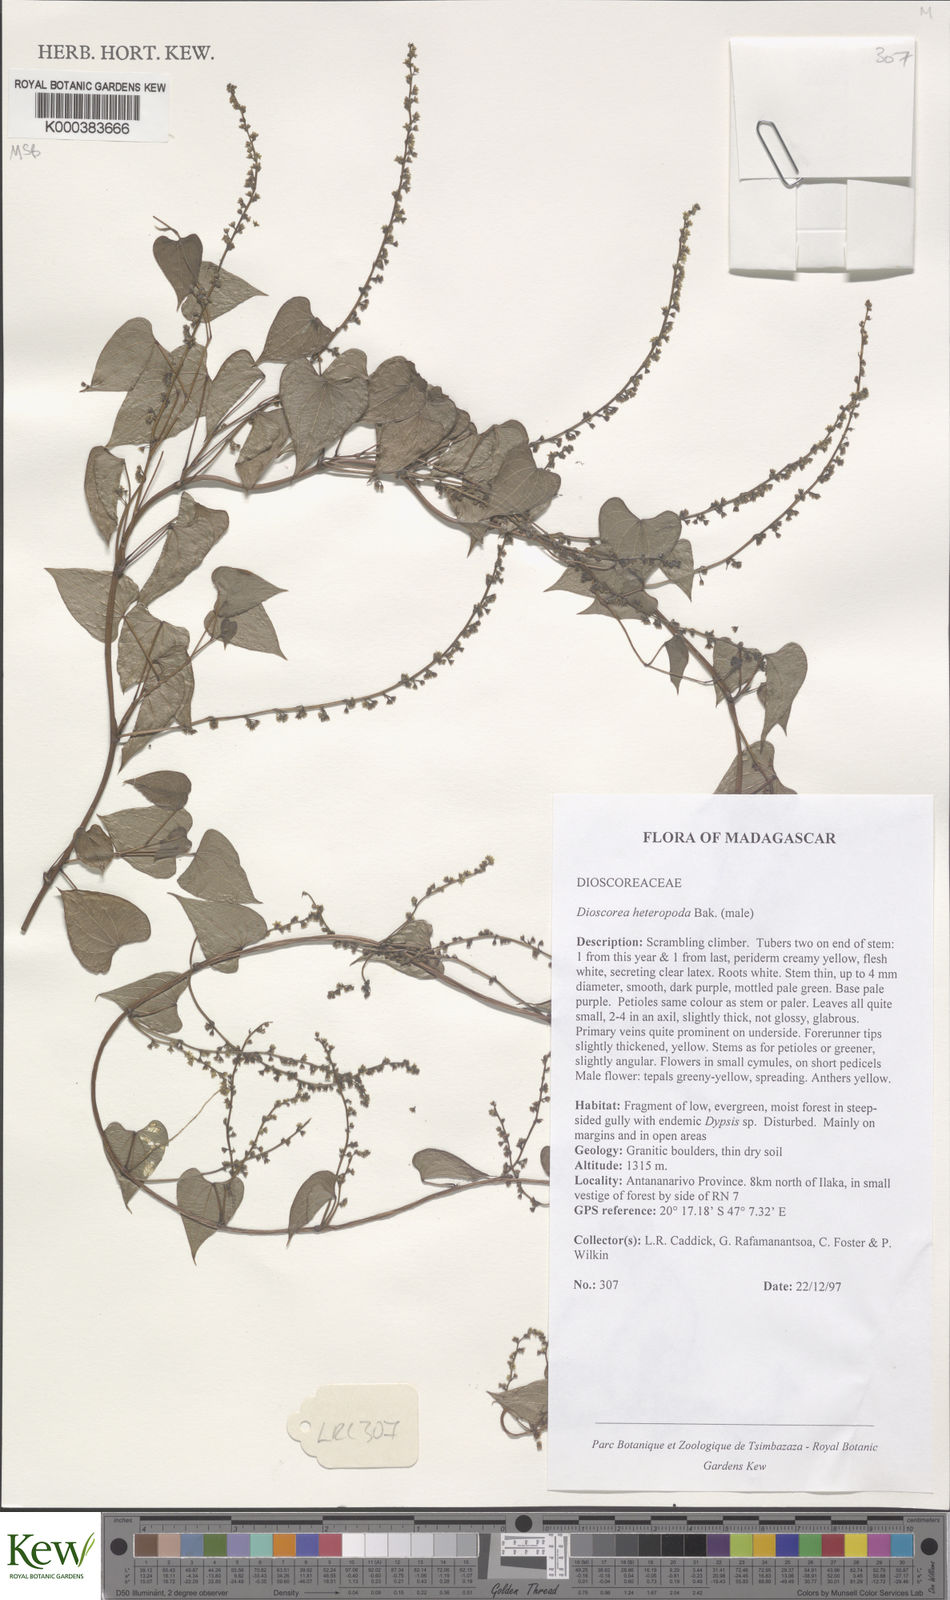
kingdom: Plantae
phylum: Tracheophyta
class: Liliopsida
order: Dioscoreales
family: Dioscoreaceae
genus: Dioscorea
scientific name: Dioscorea heteropoda
